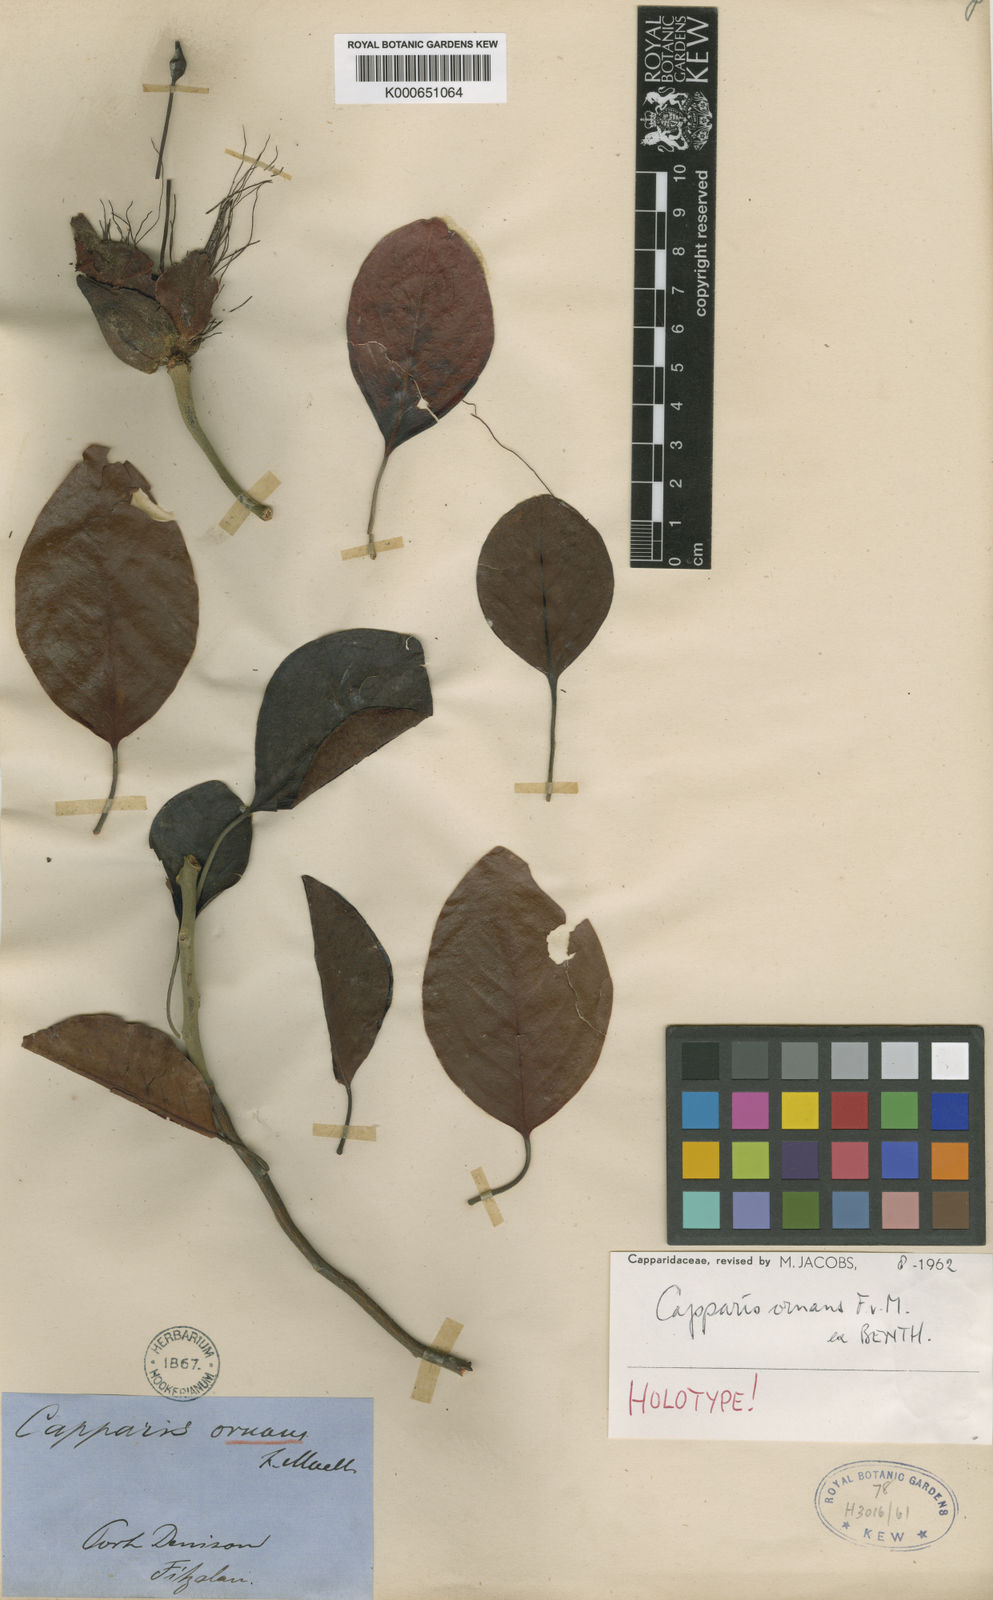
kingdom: Plantae
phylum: Tracheophyta
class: Magnoliopsida
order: Brassicales
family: Capparaceae
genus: Capparis
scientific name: Capparis ornans
